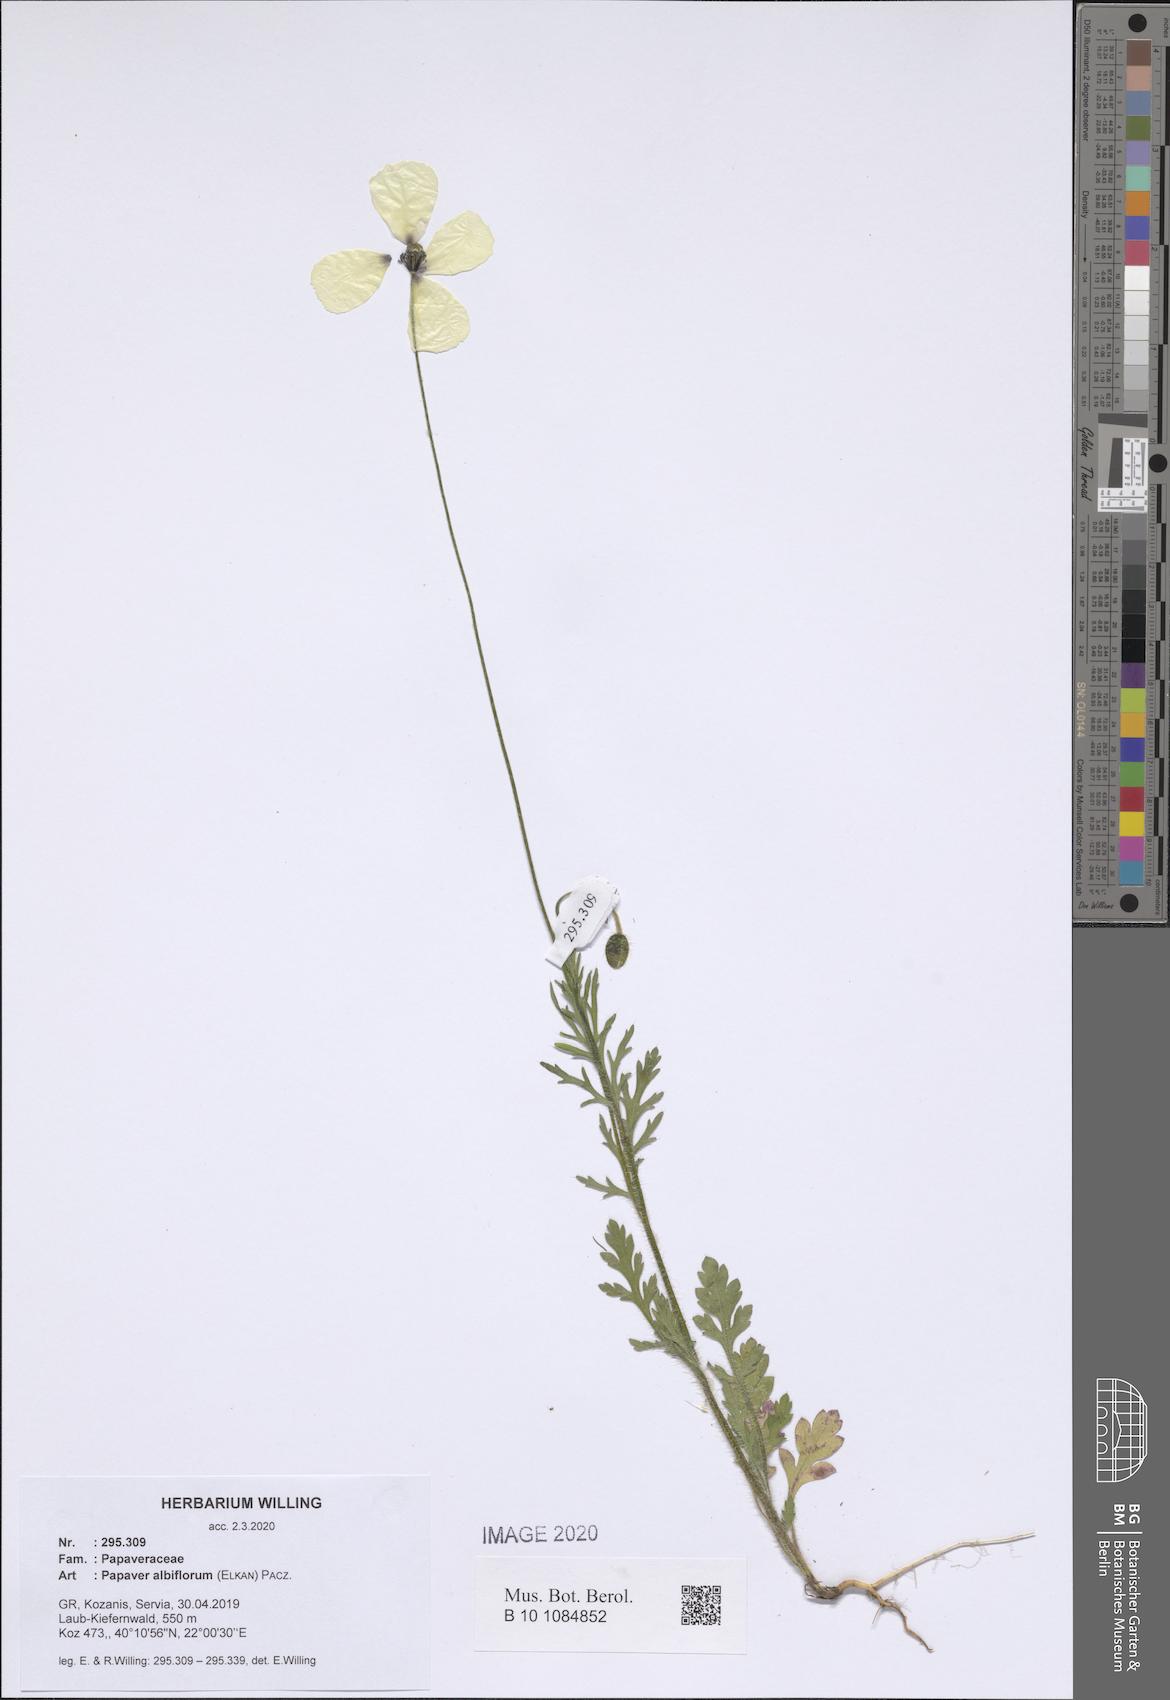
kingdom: Plantae
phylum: Tracheophyta
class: Magnoliopsida
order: Ranunculales
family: Papaveraceae
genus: Papaver
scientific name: Papaver albiflorum
